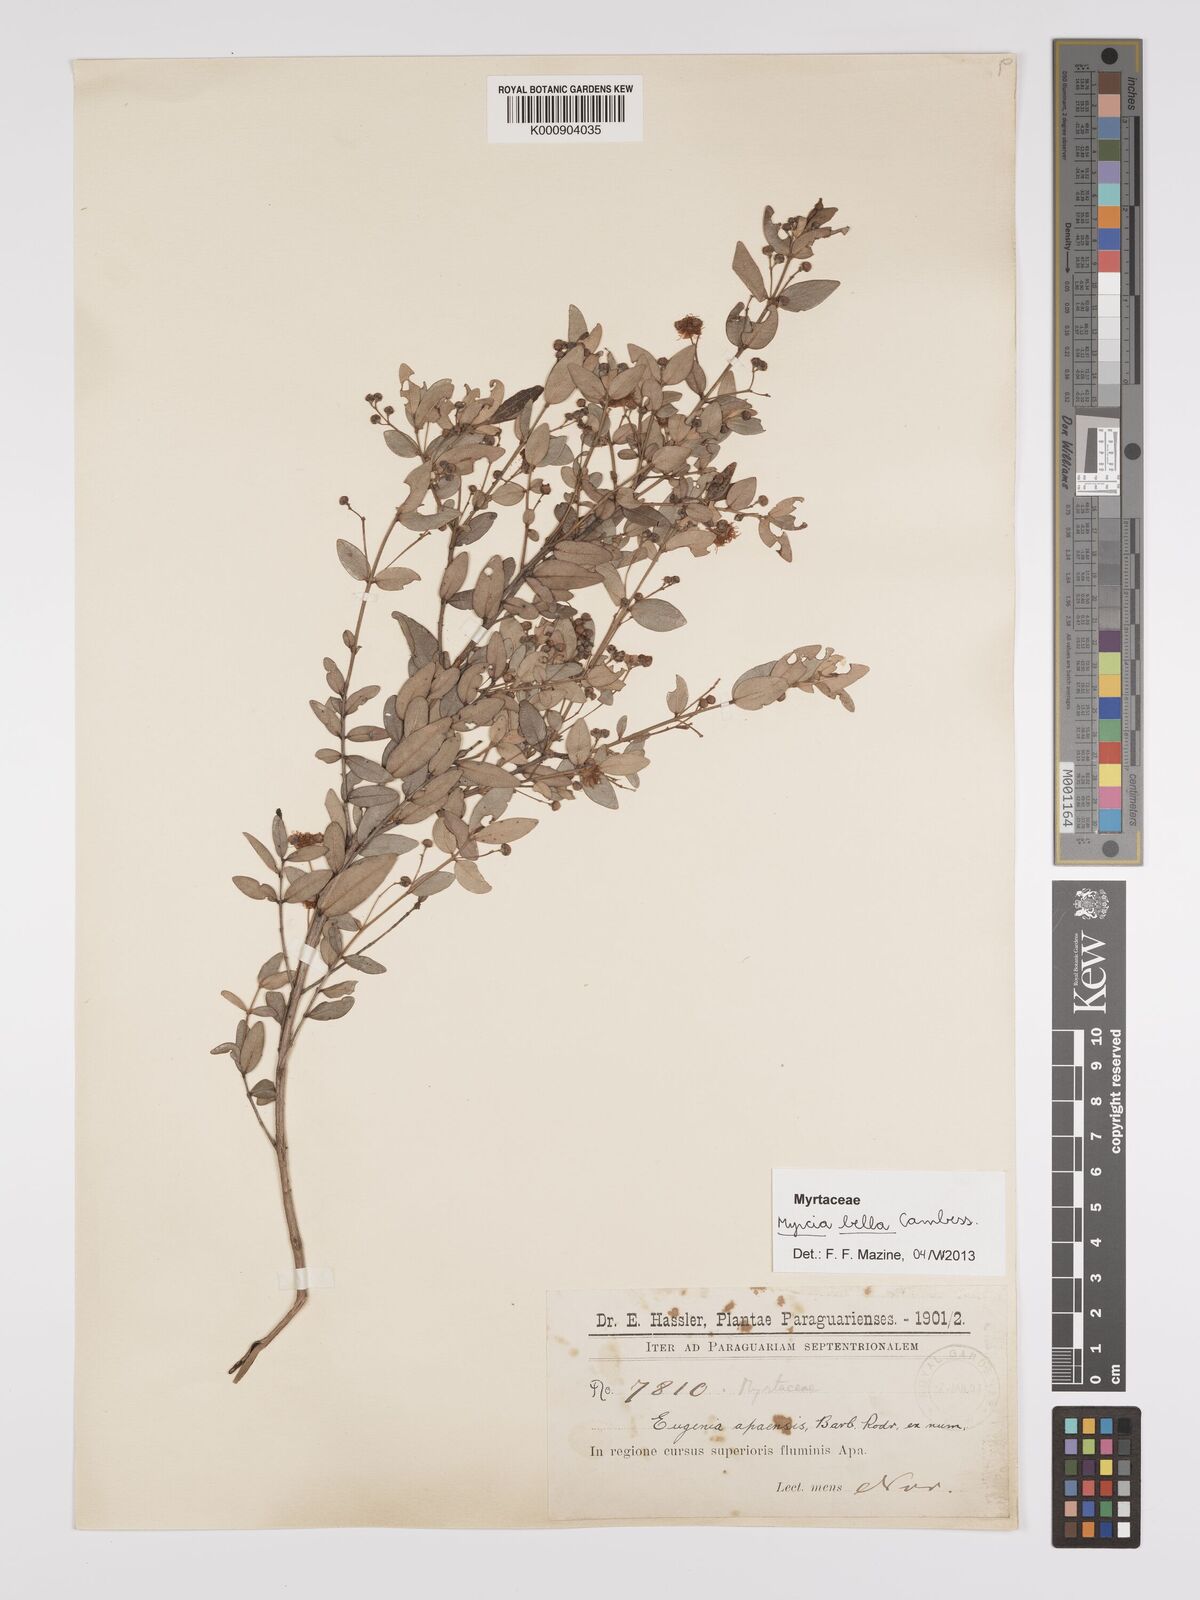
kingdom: Plantae
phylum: Tracheophyta
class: Magnoliopsida
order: Myrtales
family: Myrtaceae
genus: Myrcia
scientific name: Myrcia
